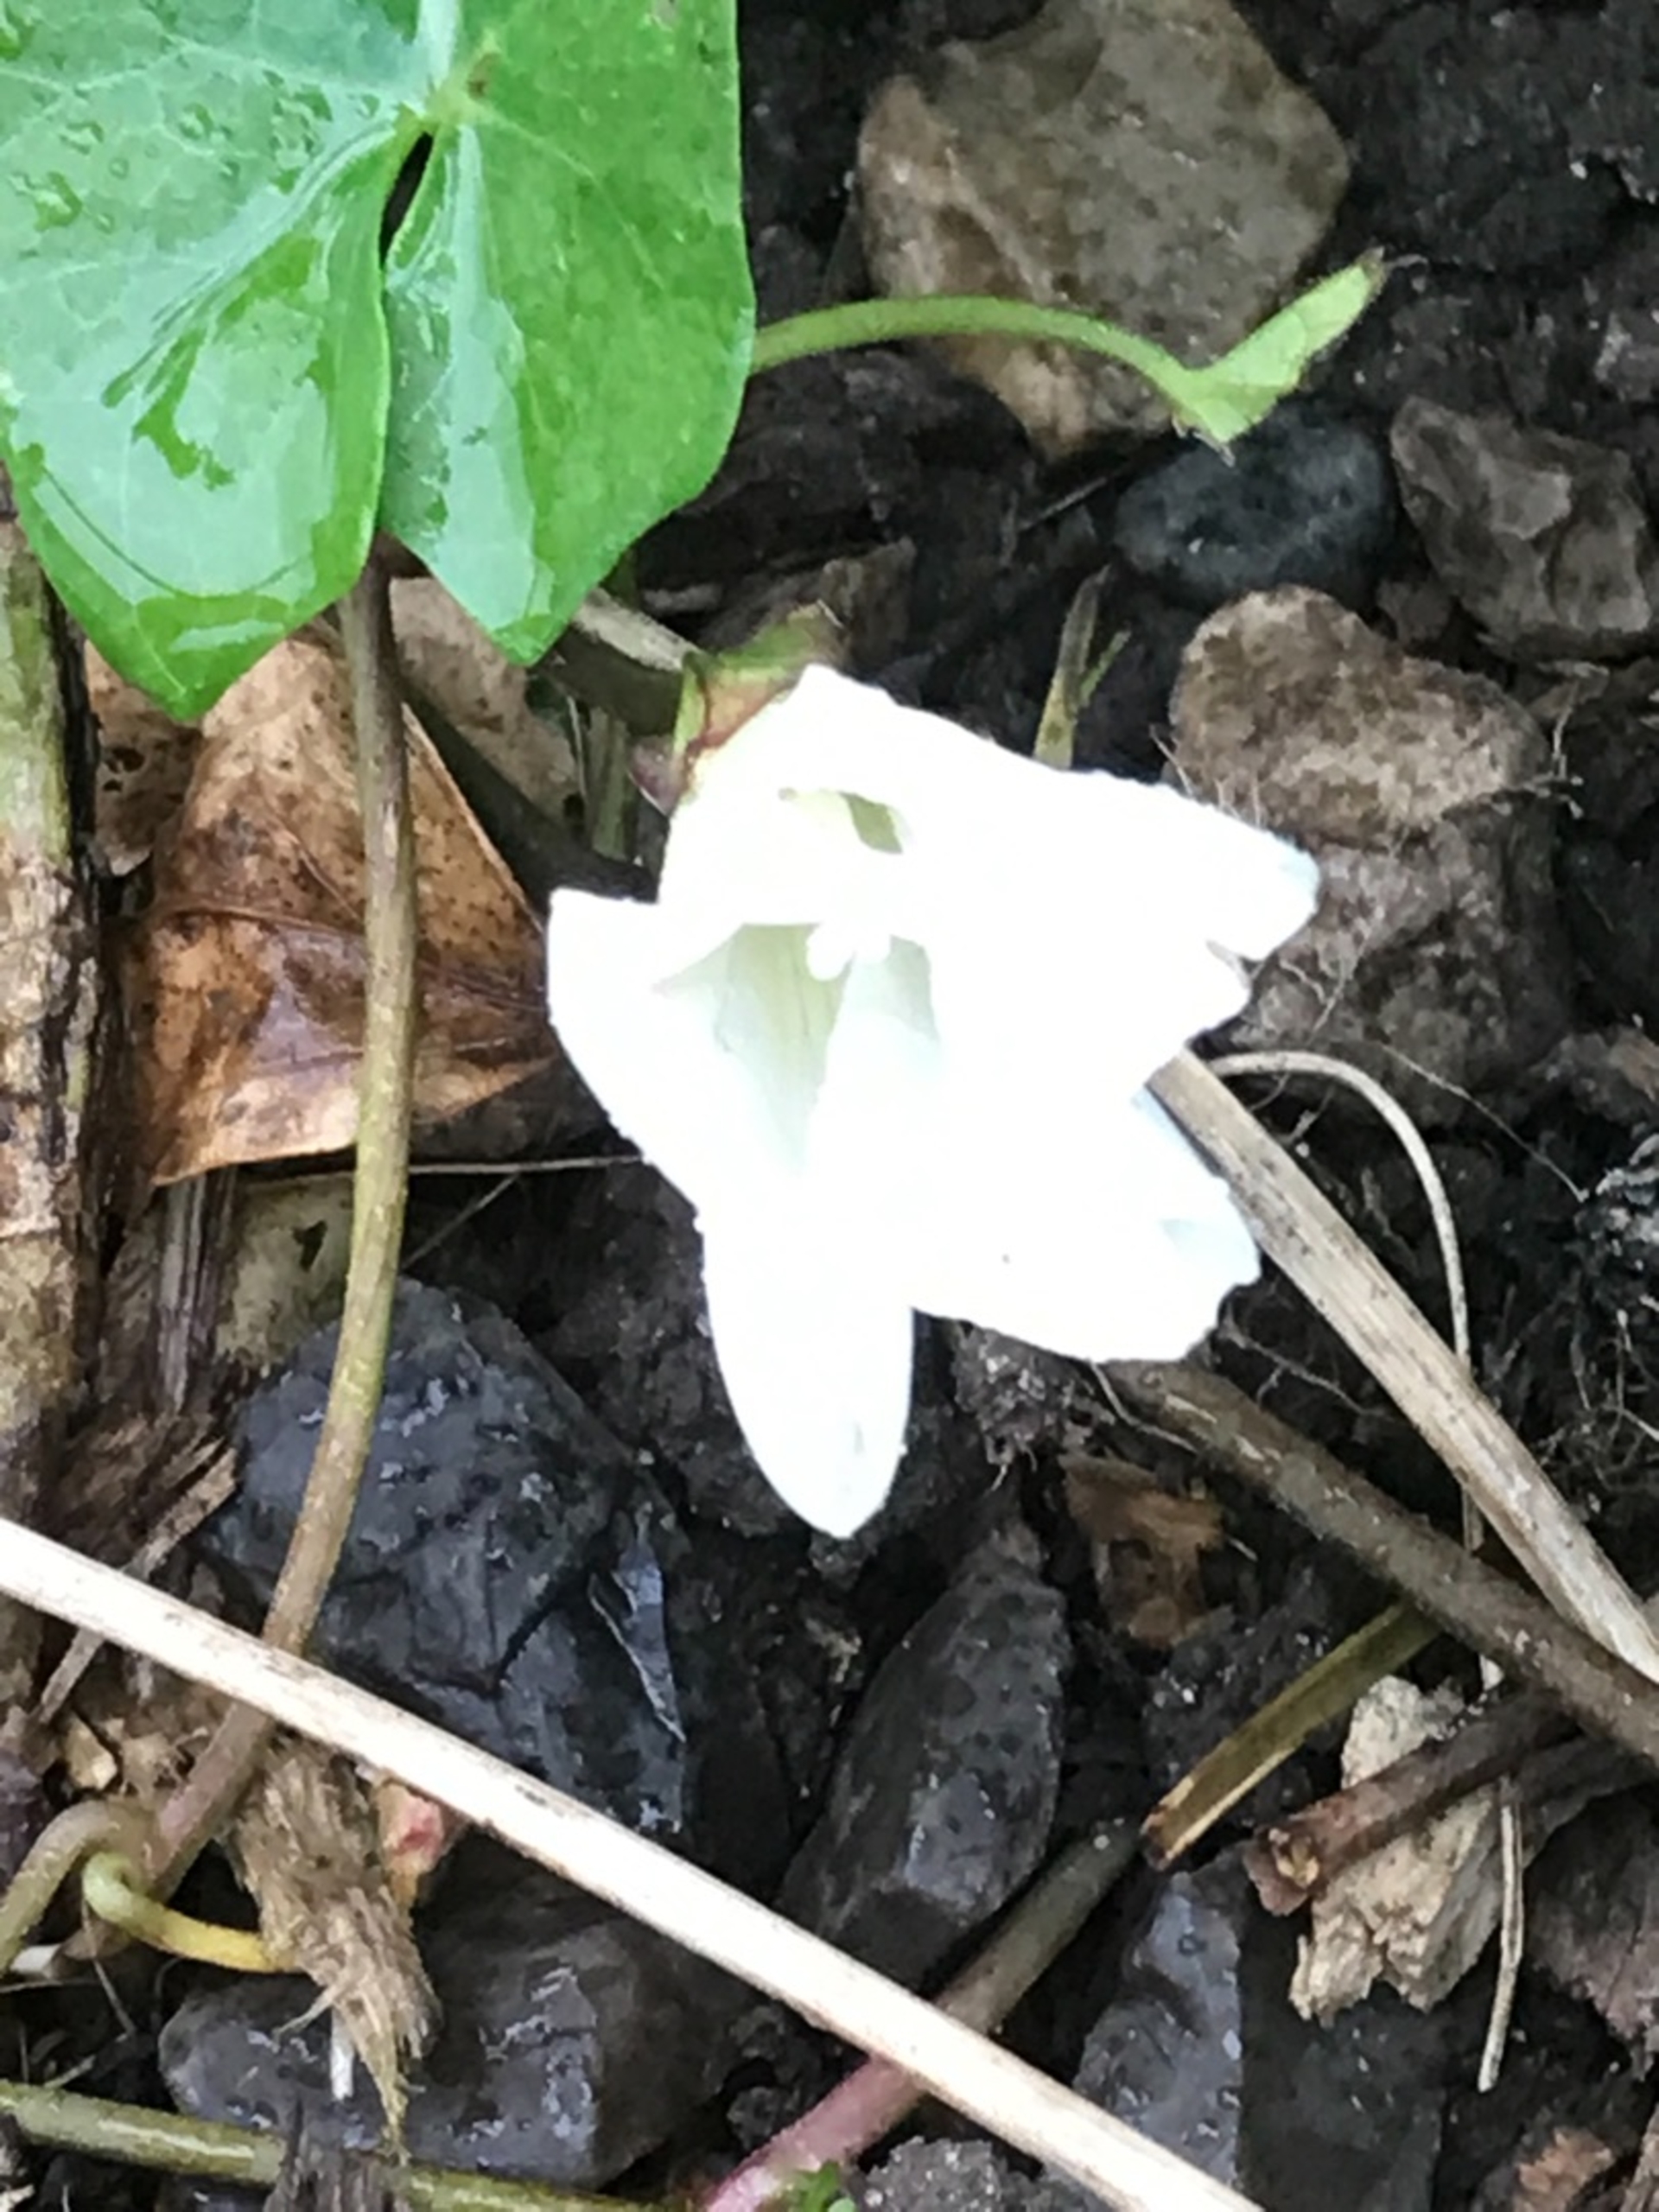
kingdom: Plantae
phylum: Tracheophyta
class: Magnoliopsida
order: Solanales
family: Convolvulaceae
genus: Calystegia
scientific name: Calystegia sepium
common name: Gærde-snerle
